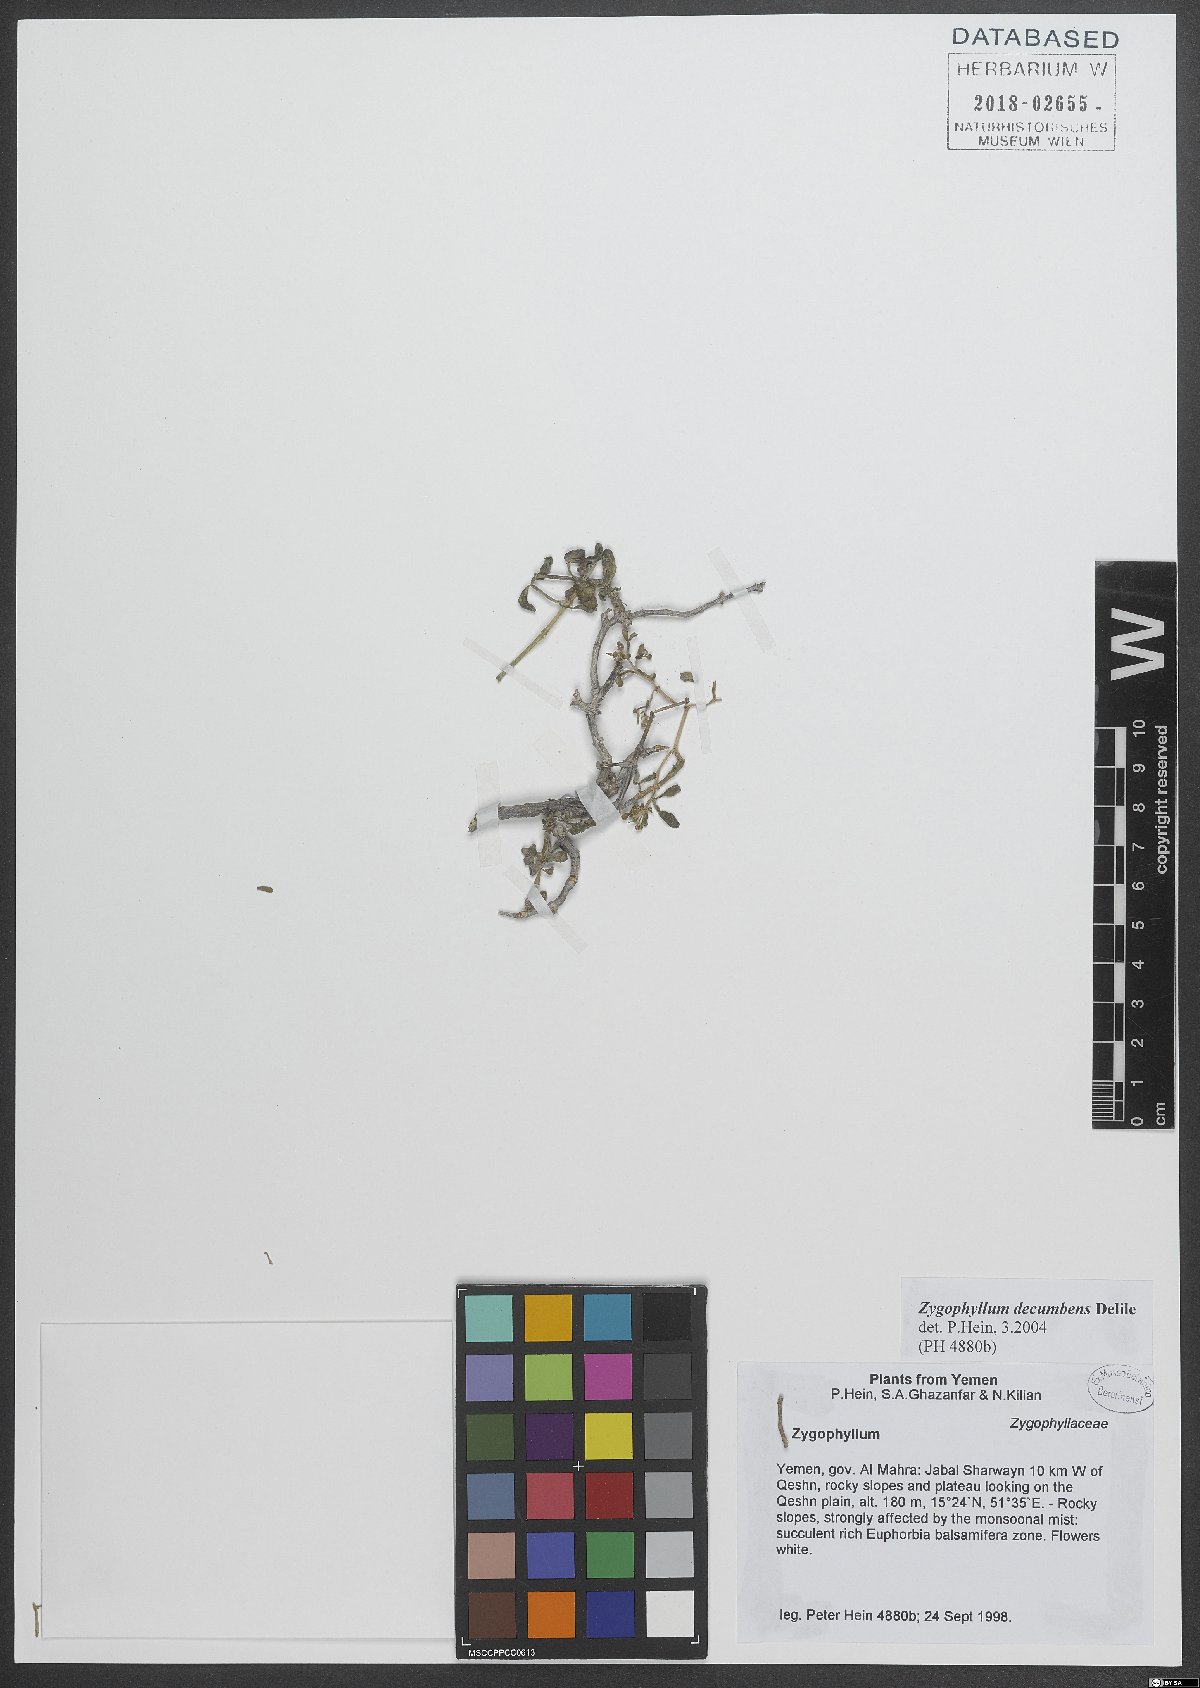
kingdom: Plantae
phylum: Tracheophyta
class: Magnoliopsida
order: Zygophyllales
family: Zygophyllaceae
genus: Tetraena
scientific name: Tetraena decumbens
